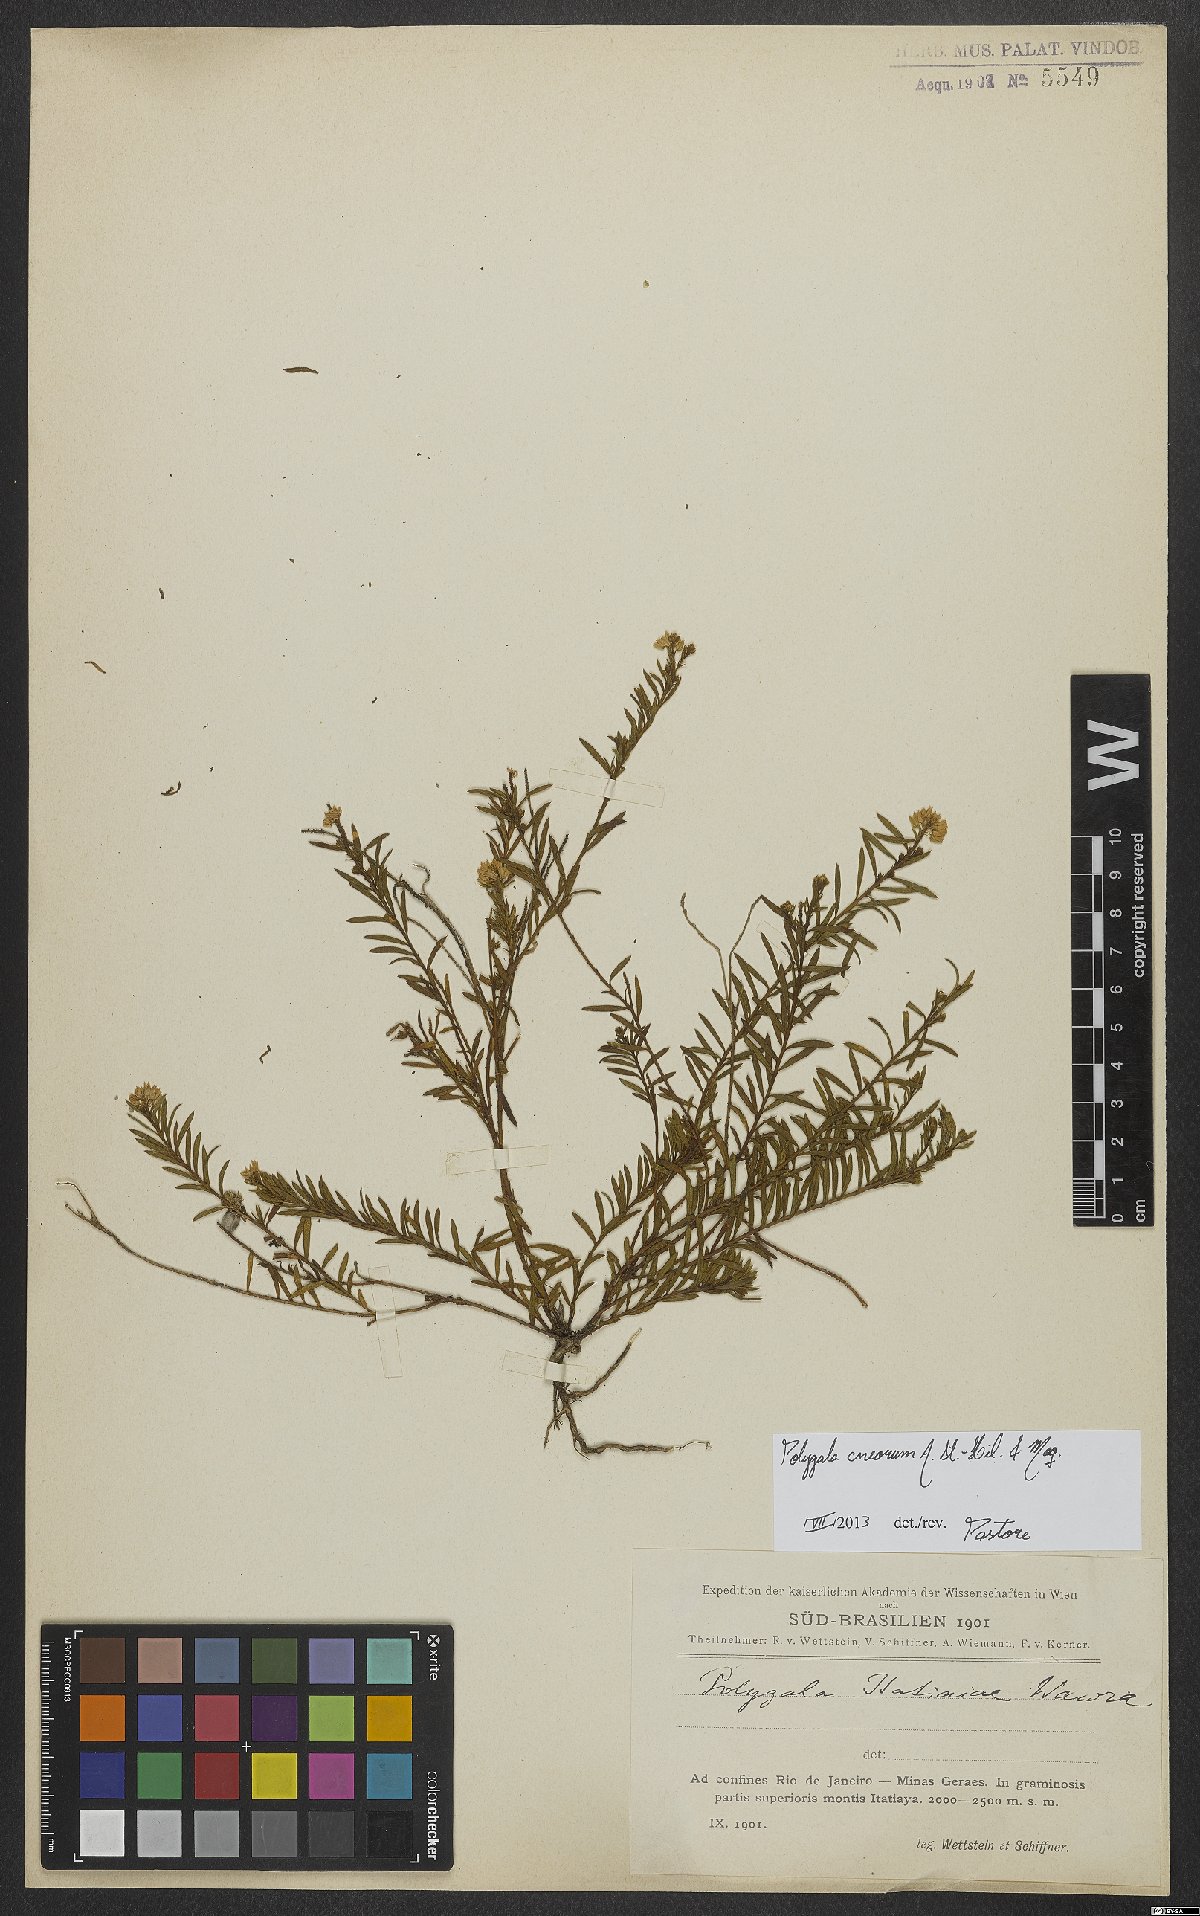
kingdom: Plantae
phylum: Tracheophyta
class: Magnoliopsida
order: Fabales
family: Polygalaceae
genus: Polygala
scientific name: Polygala cneorum
